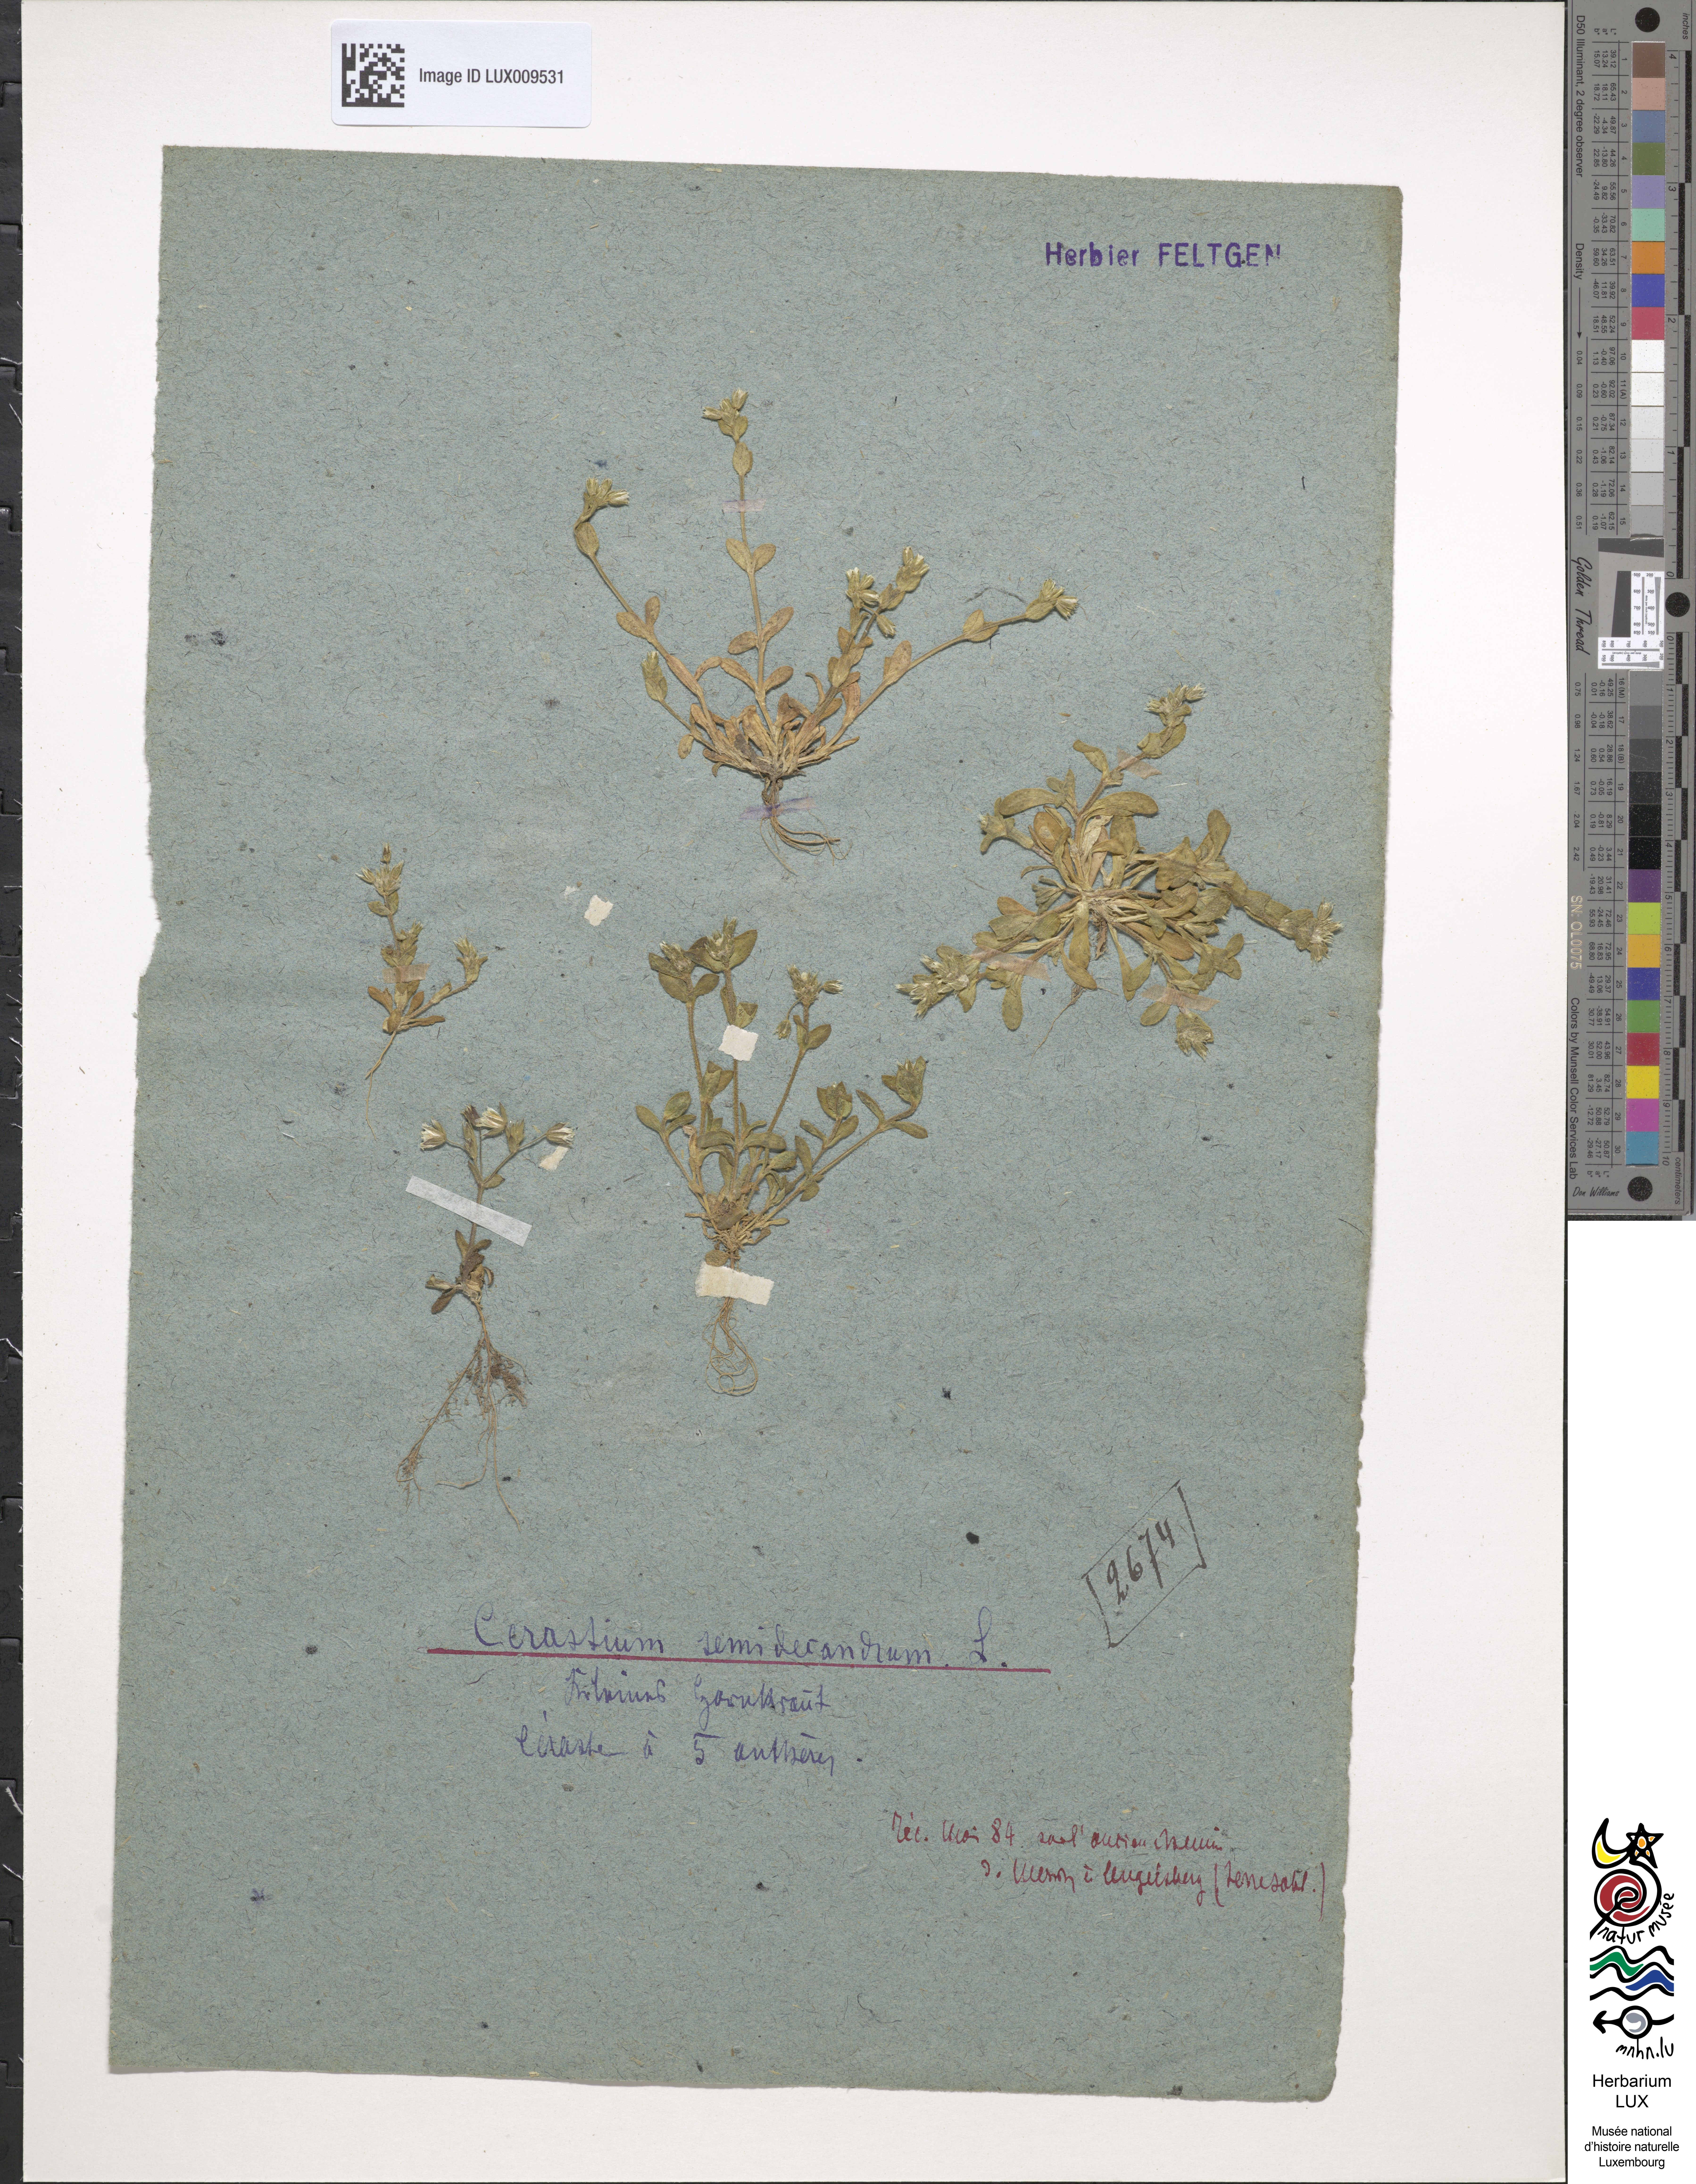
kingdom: Plantae
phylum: Tracheophyta
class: Magnoliopsida
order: Caryophyllales
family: Caryophyllaceae
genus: Cerastium
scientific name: Cerastium semidecandrum
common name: Little mouse-ear
